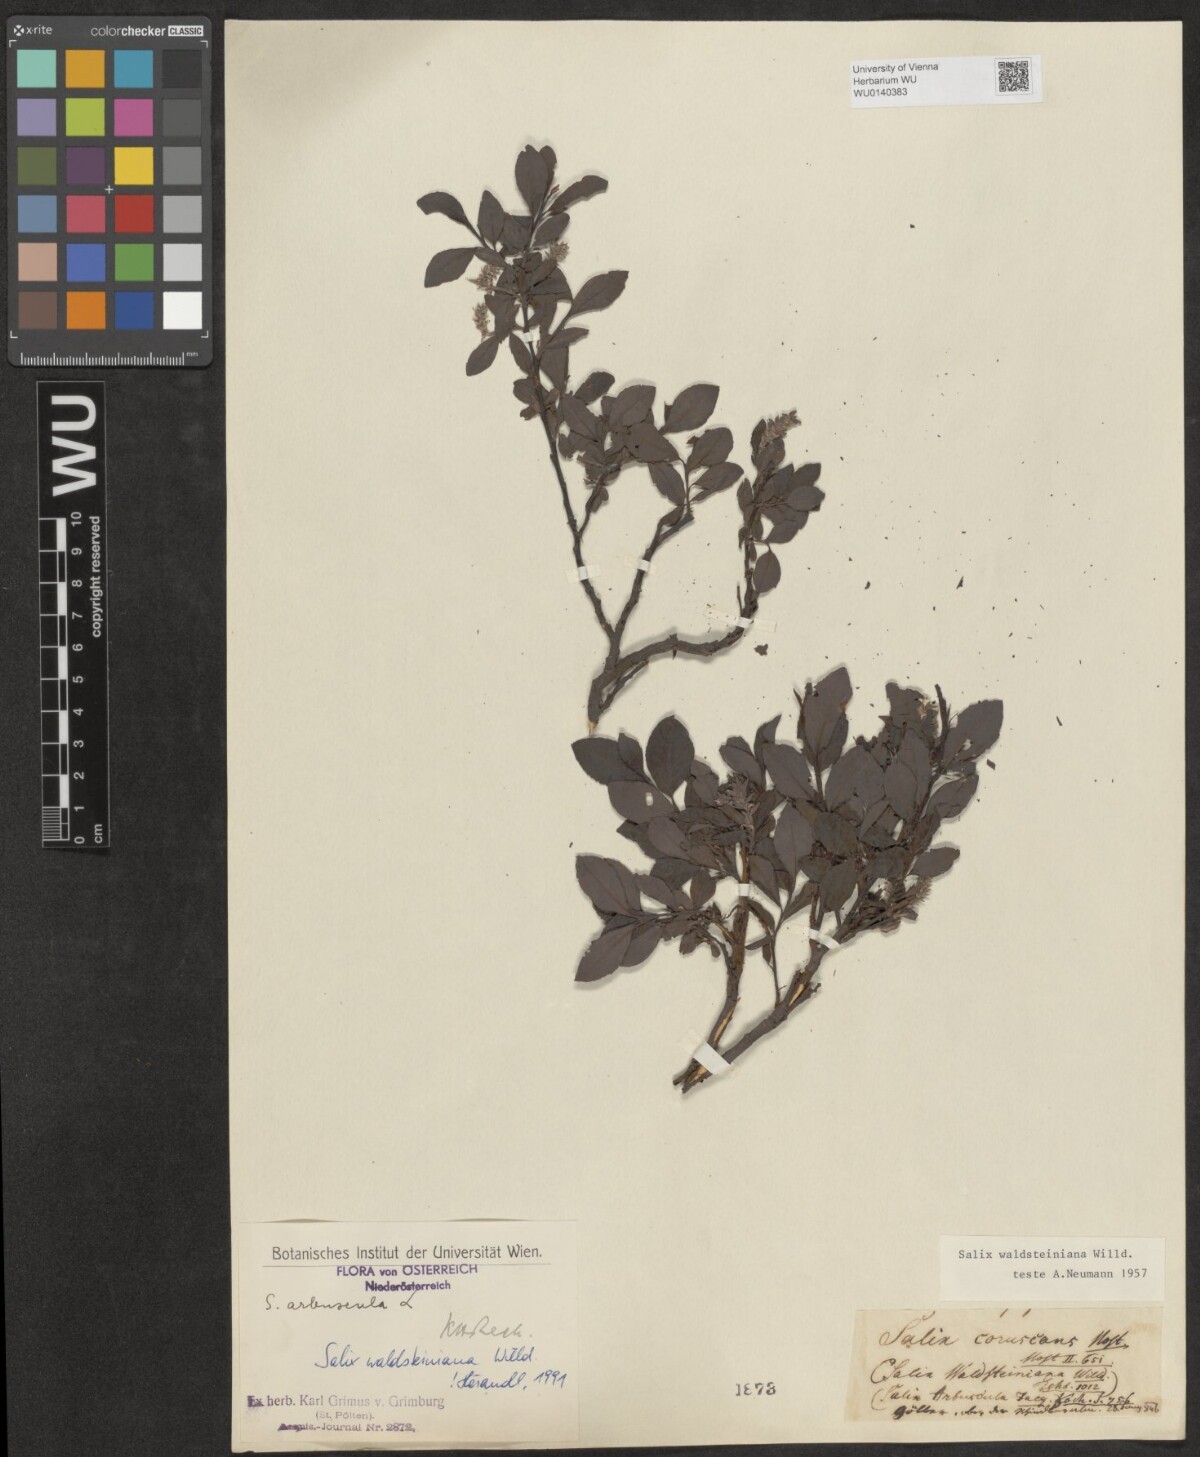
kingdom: Plantae
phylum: Tracheophyta
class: Magnoliopsida
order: Malpighiales
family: Salicaceae
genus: Salix
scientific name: Salix waldsteiniana
